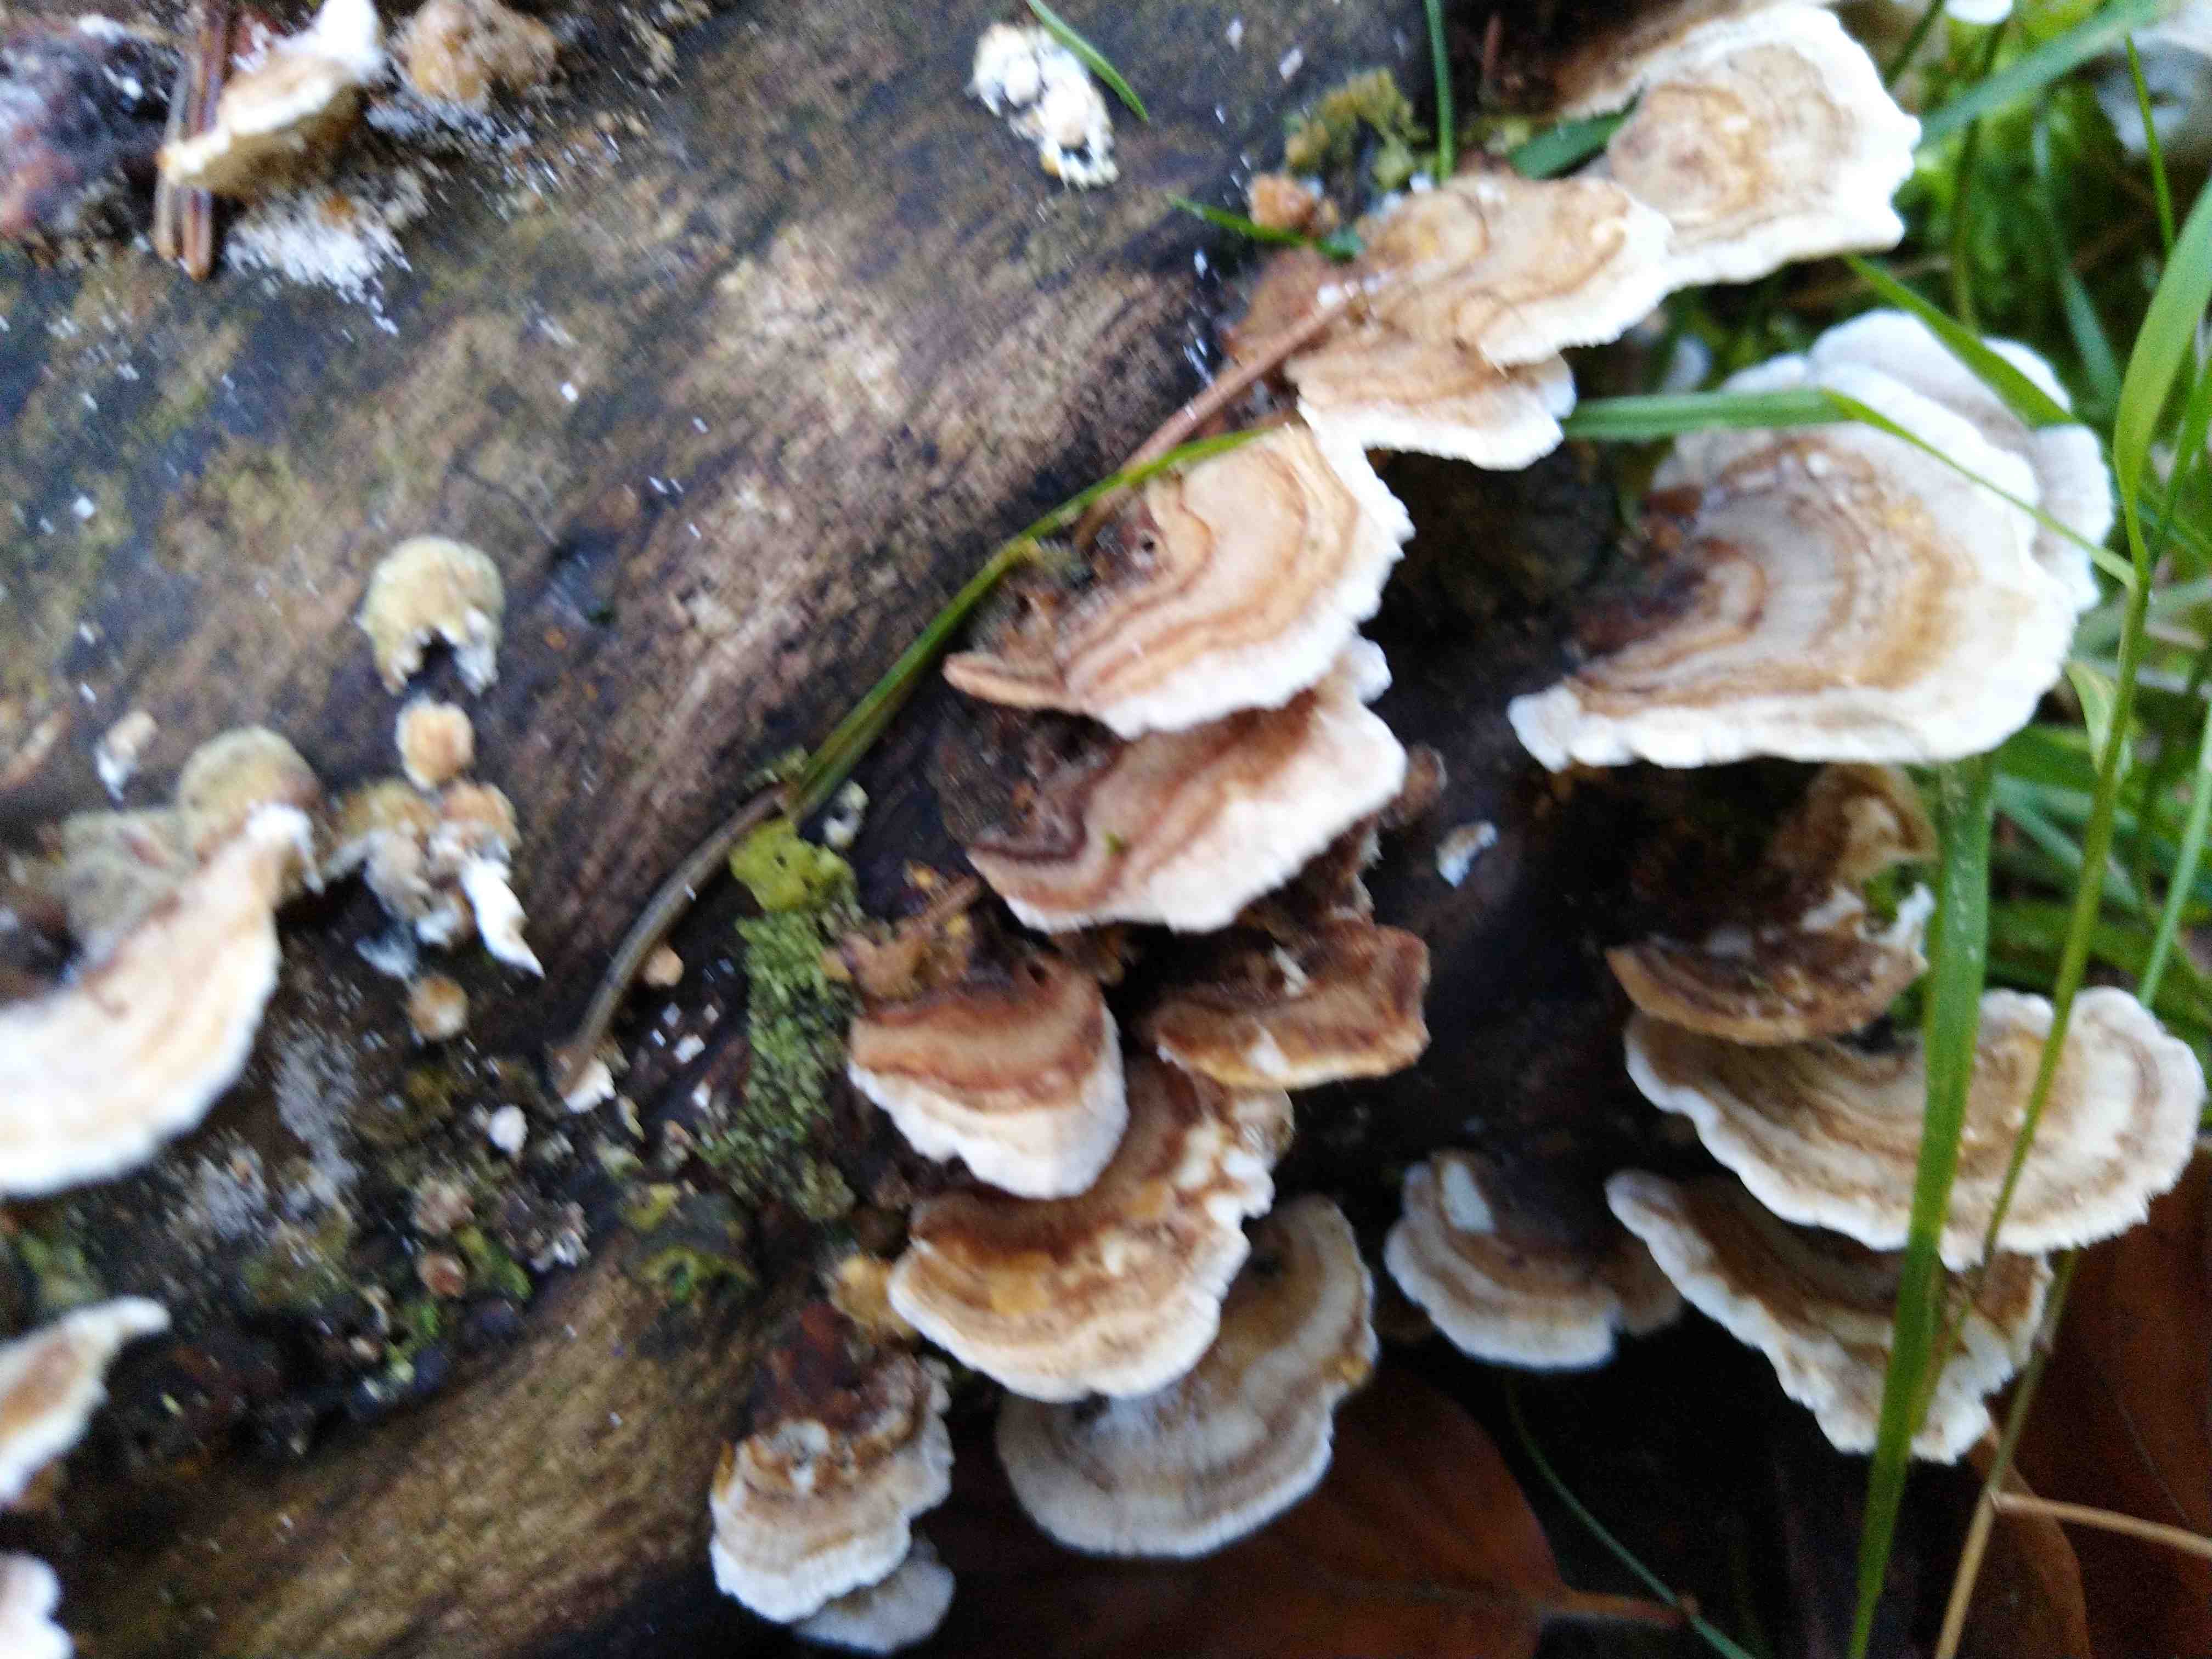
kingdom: Fungi
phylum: Basidiomycota
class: Agaricomycetes
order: Polyporales
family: Polyporaceae
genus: Trametes
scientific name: Trametes versicolor
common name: broget læderporesvamp
